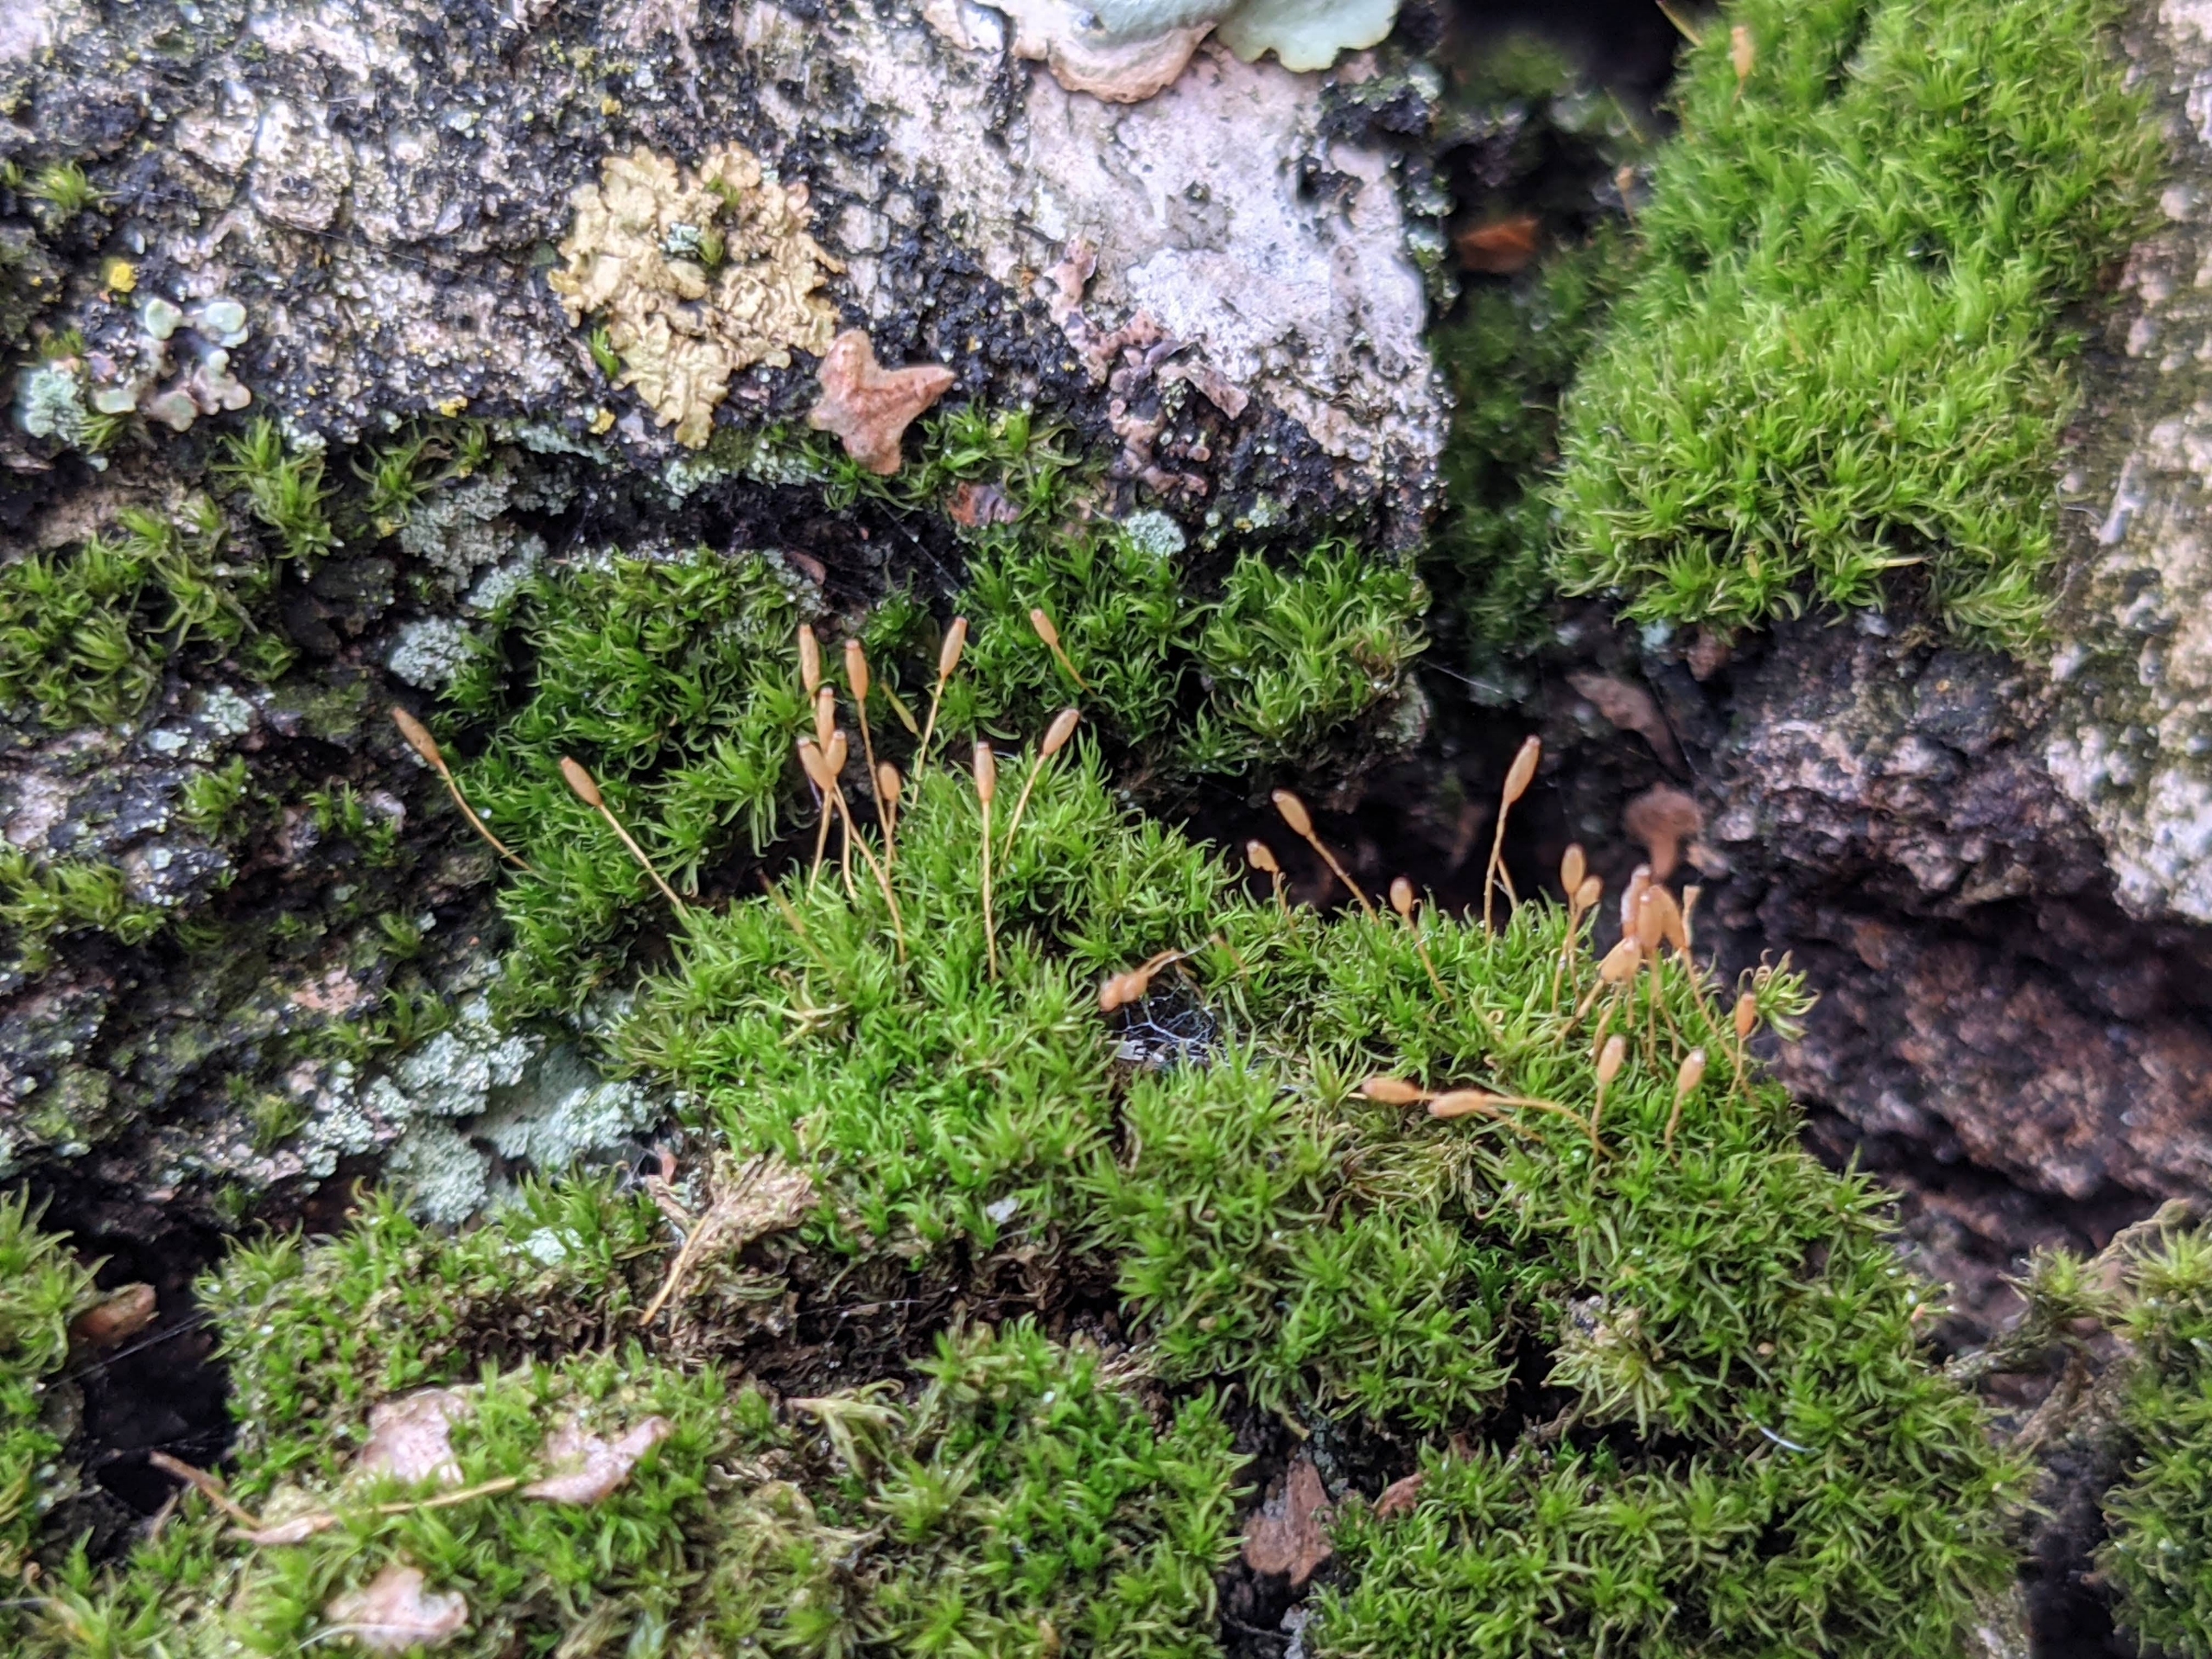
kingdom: Plantae
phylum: Bryophyta
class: Bryopsida
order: Dicranales
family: Rhabdoweisiaceae
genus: Dicranoweisia
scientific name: Dicranoweisia cirrata
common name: Almindelig krøltuemos
